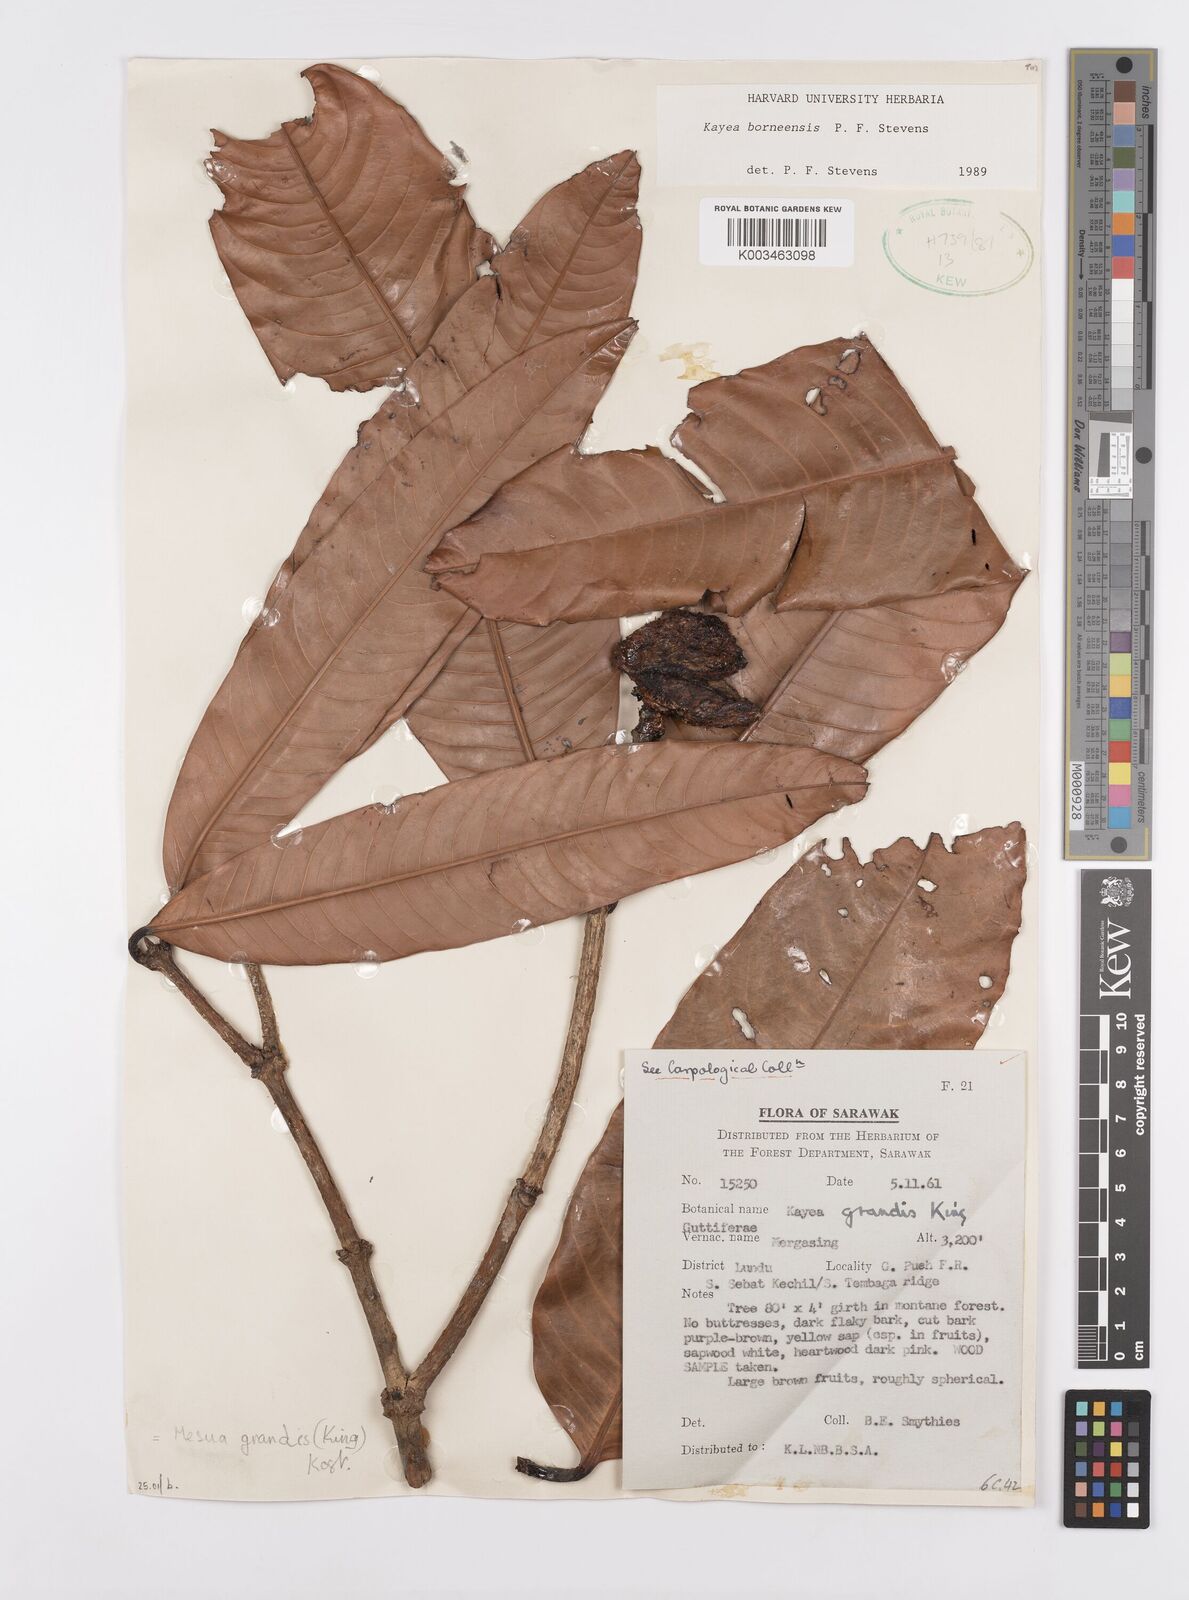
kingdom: Plantae
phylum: Tracheophyta
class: Magnoliopsida
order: Malpighiales
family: Calophyllaceae
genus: Kayea
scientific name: Kayea borneensis
